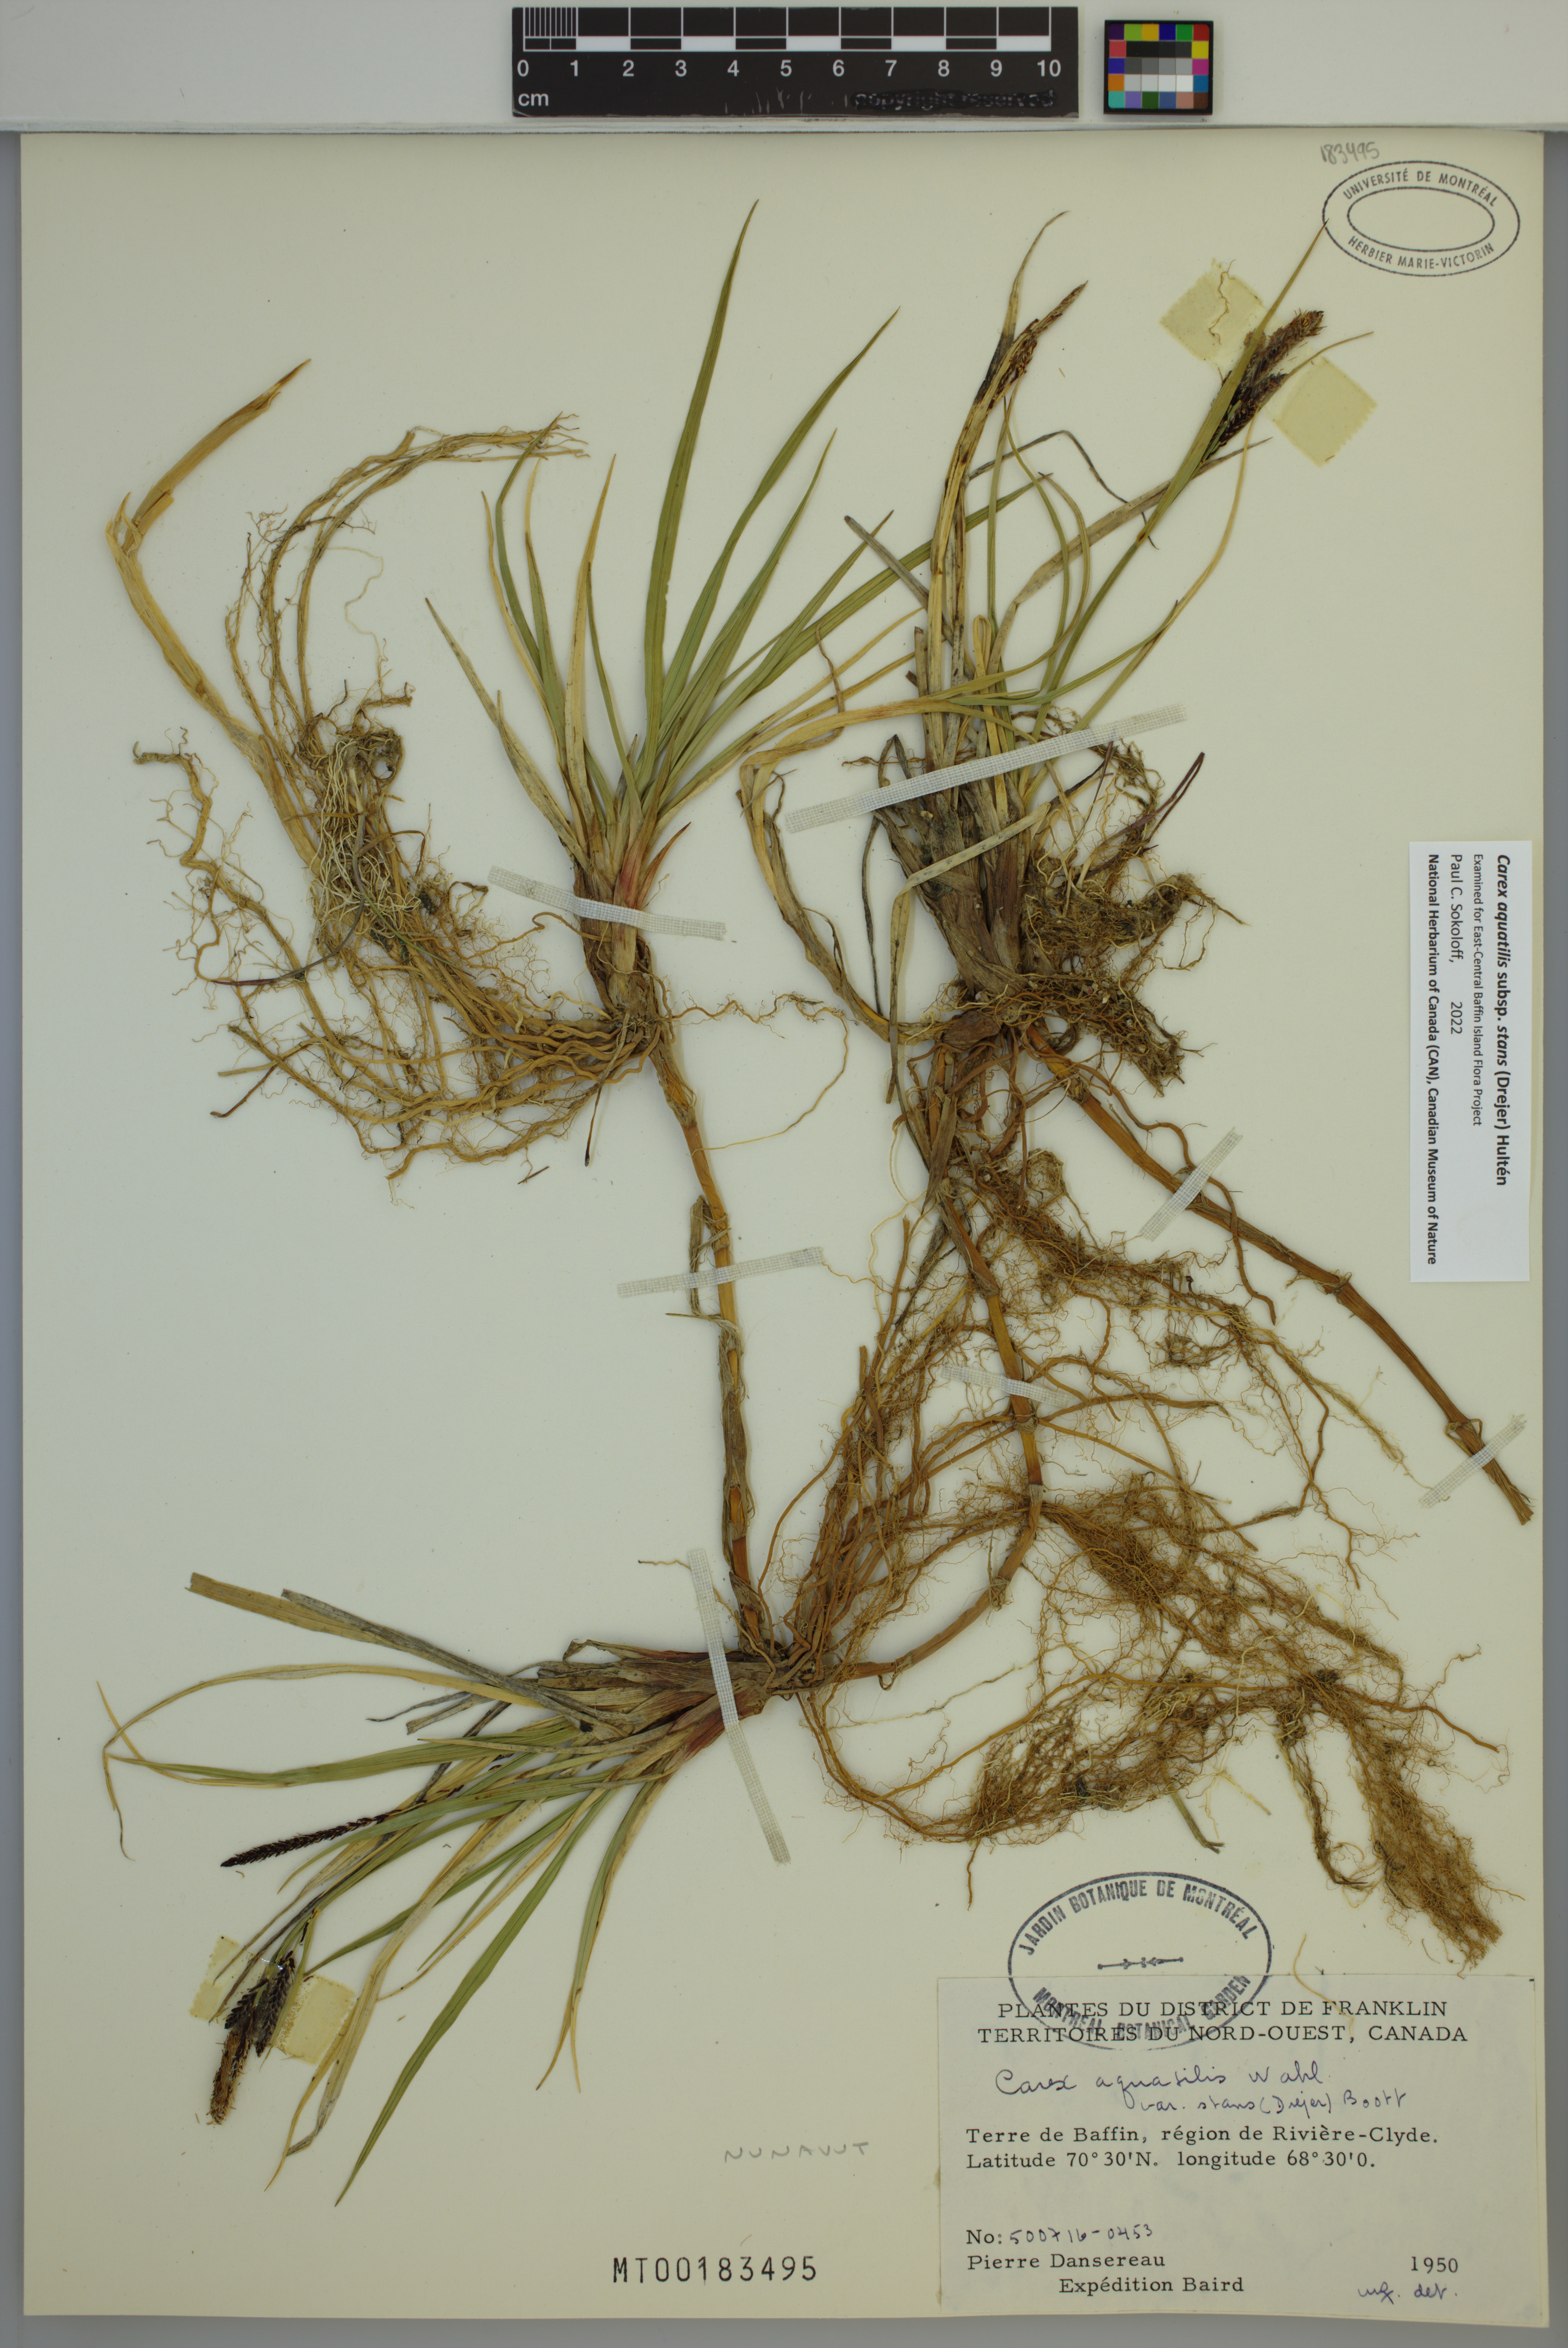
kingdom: Plantae
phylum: Tracheophyta
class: Liliopsida
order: Poales
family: Cyperaceae
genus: Carex
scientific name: Carex aquatilis
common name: Water sedge
